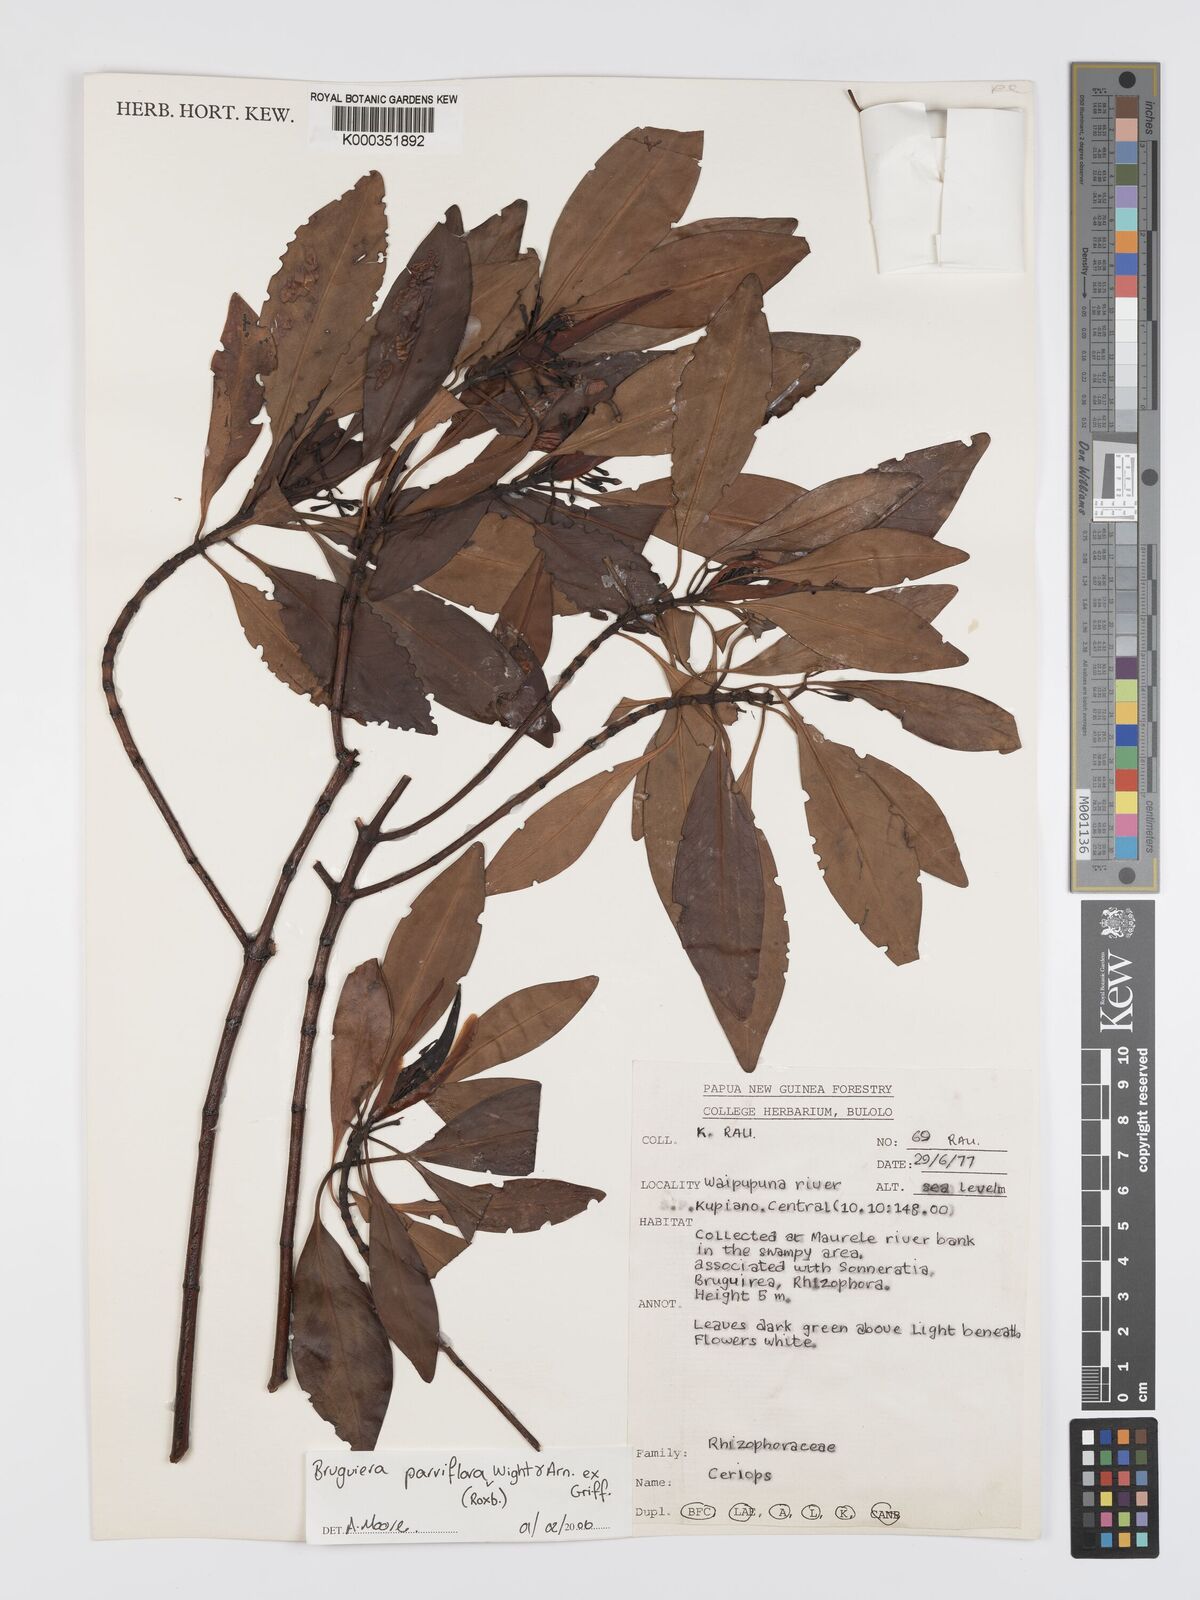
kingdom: Plantae
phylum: Tracheophyta
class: Magnoliopsida
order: Malpighiales
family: Rhizophoraceae
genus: Bruguiera
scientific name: Bruguiera parviflora
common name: Smallflower bruguiera
